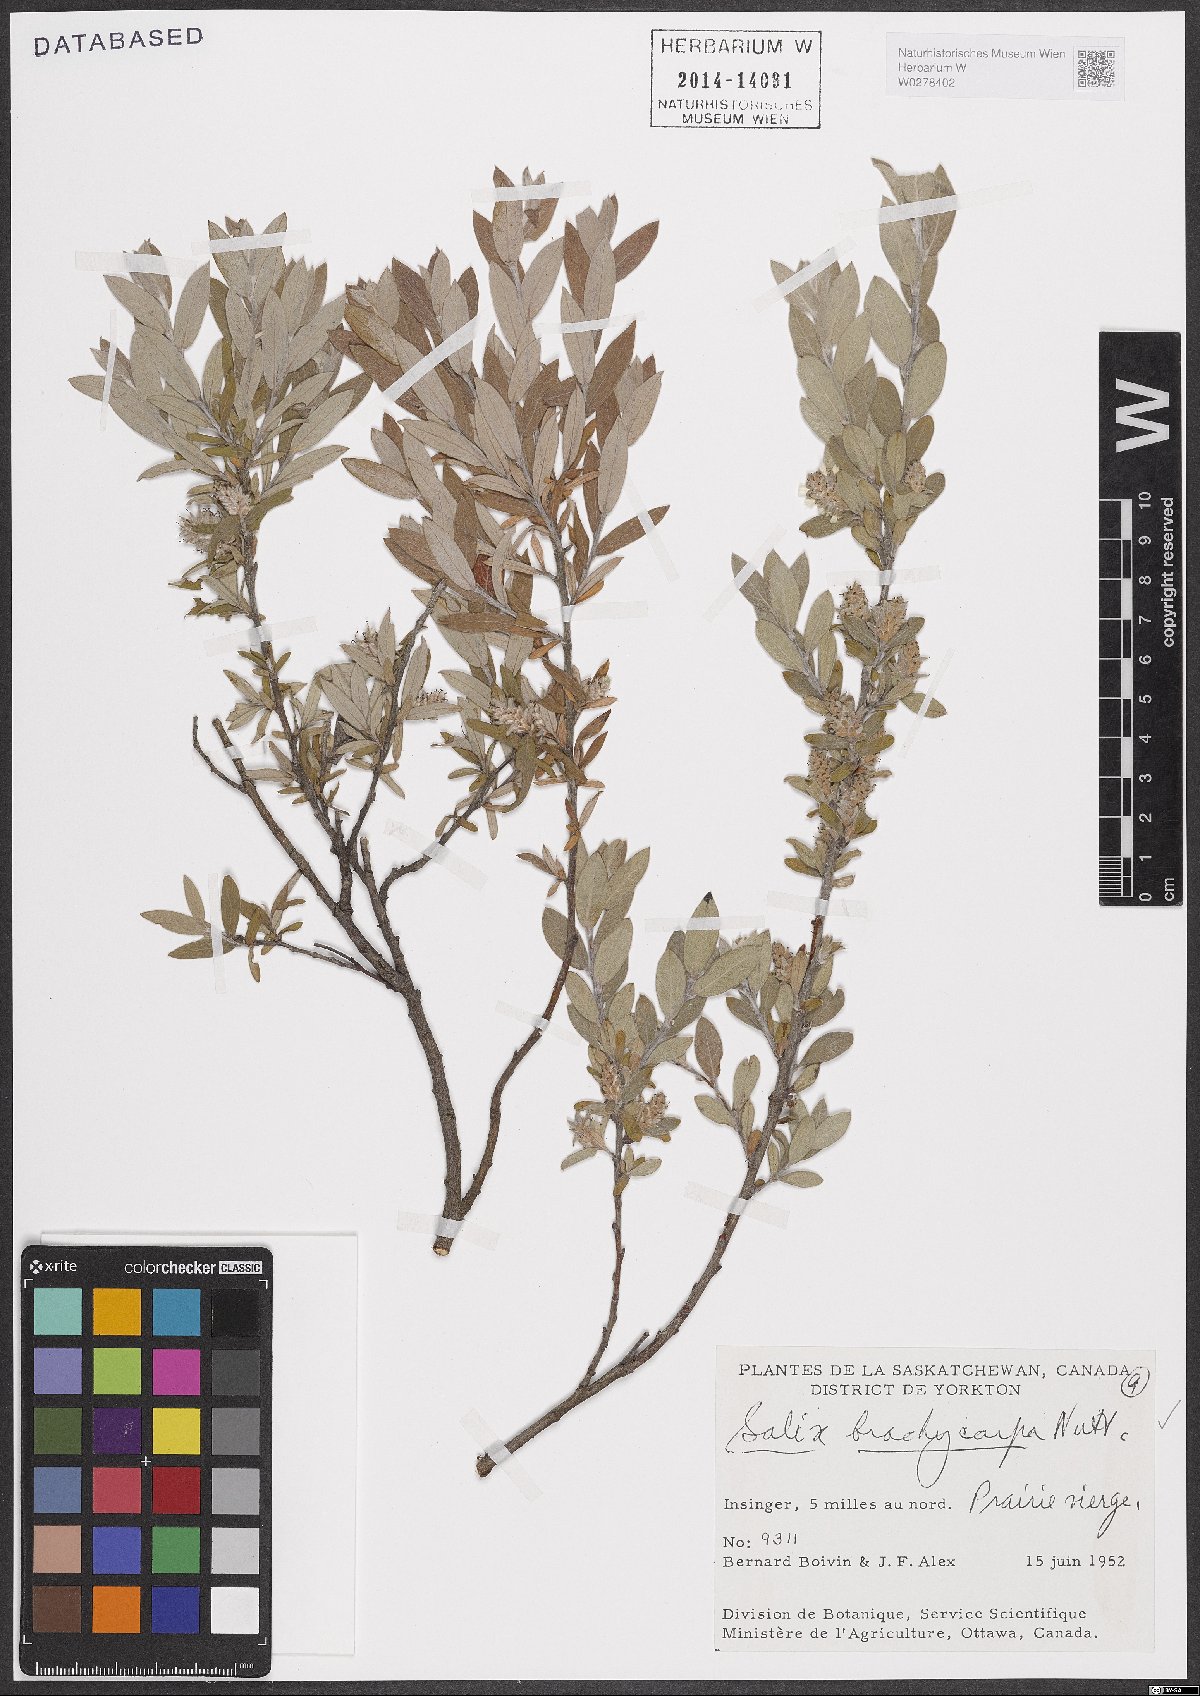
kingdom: Plantae
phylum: Tracheophyta
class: Magnoliopsida
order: Malpighiales
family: Salicaceae
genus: Salix
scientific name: Salix brachycarpa
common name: Barren-ground willow
